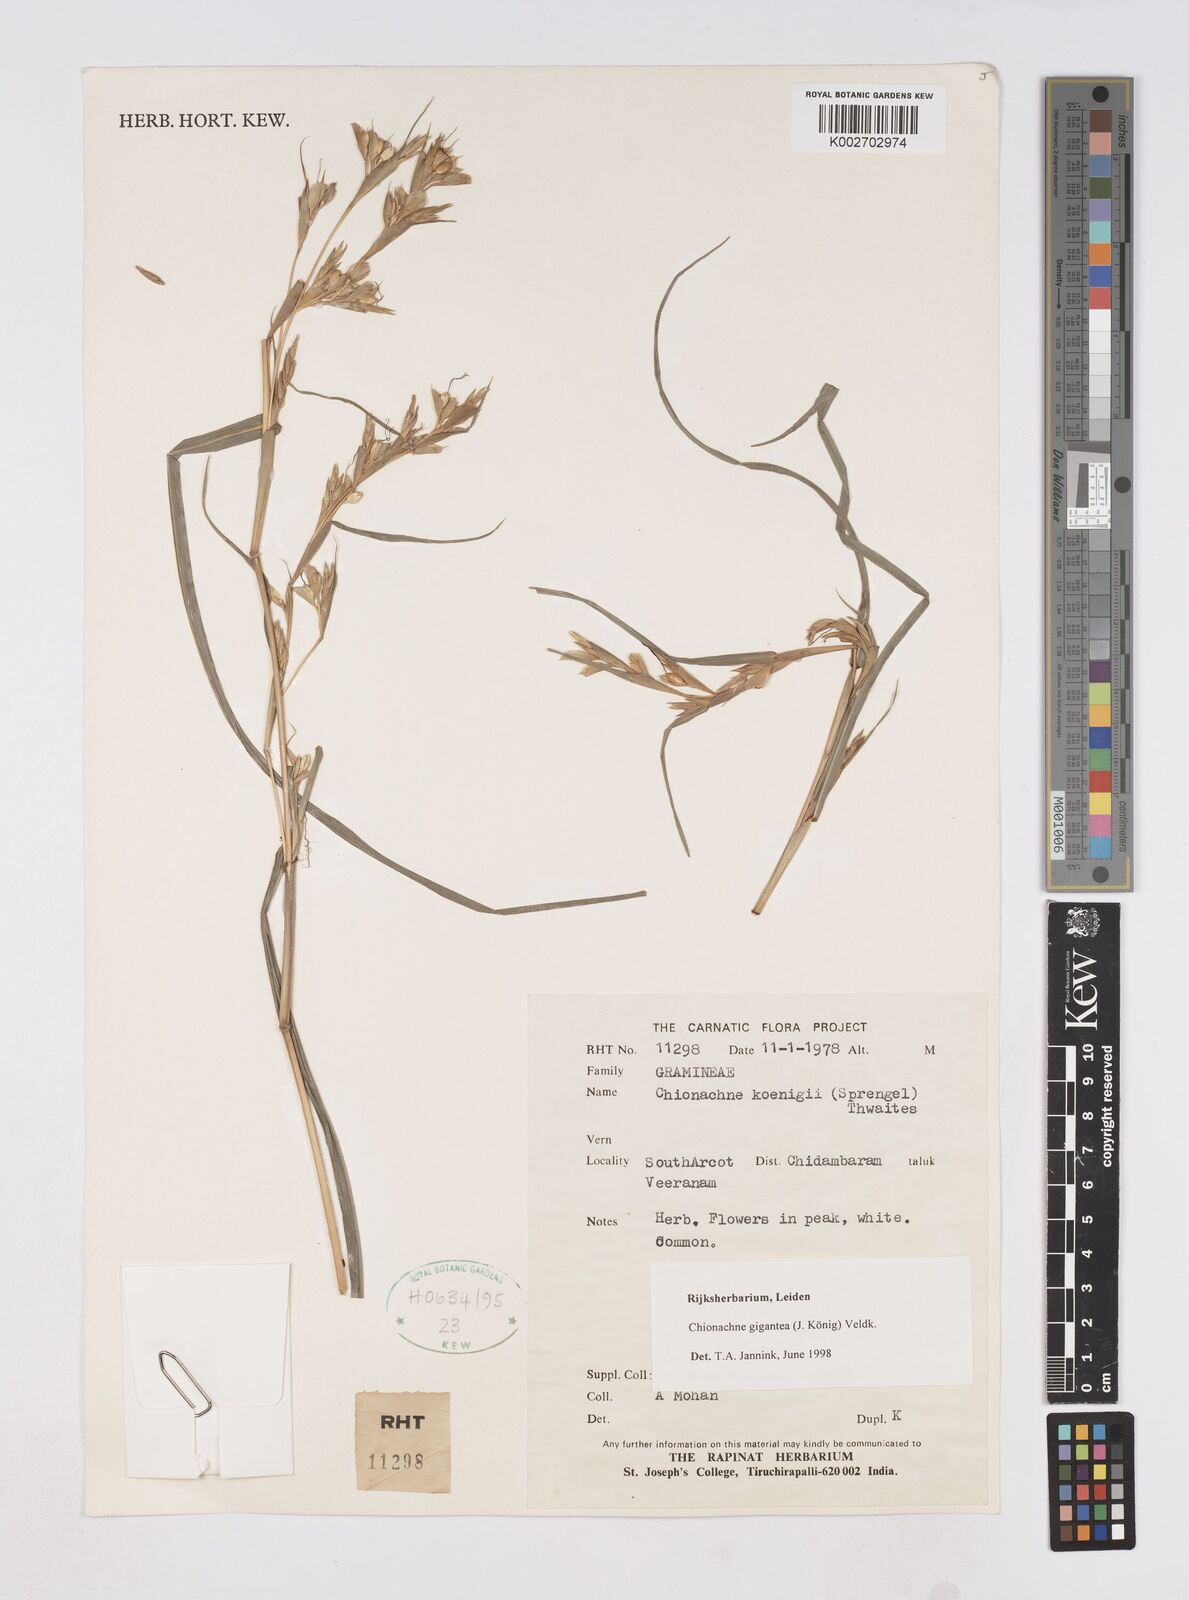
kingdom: Plantae
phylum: Tracheophyta
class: Liliopsida
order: Poales
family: Poaceae
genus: Polytoca
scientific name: Polytoca gigantea
